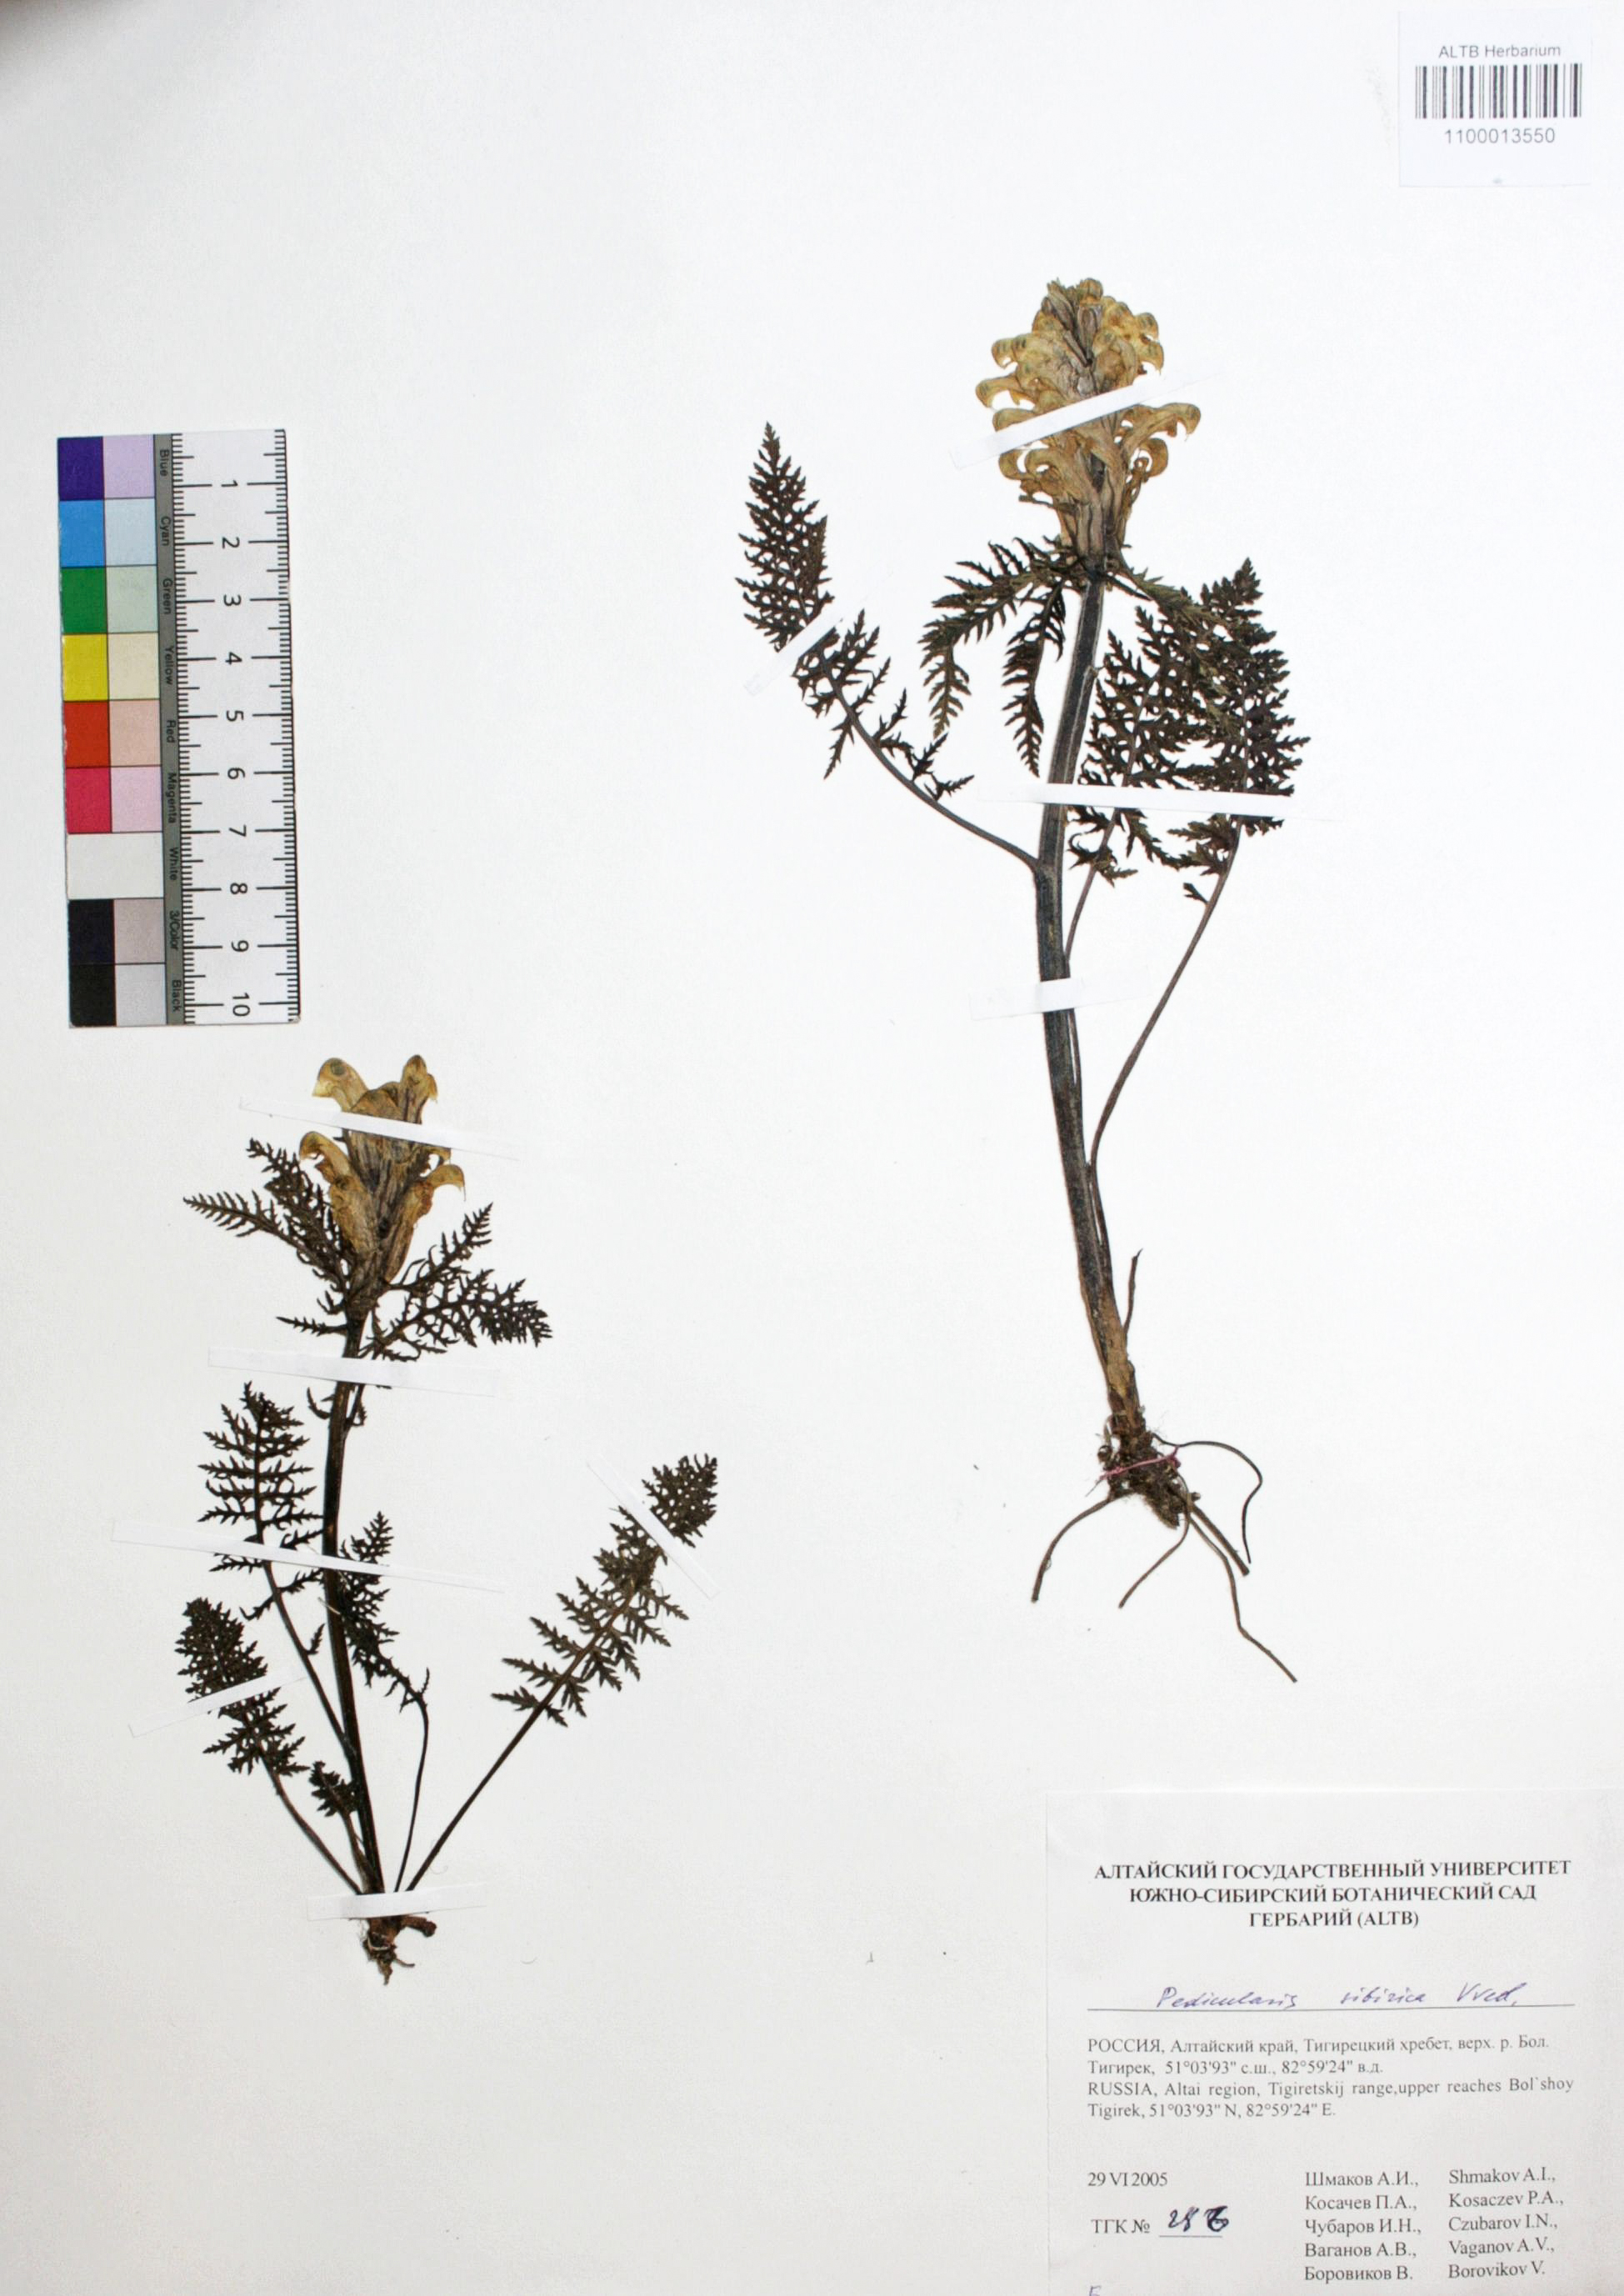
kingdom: Plantae
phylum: Tracheophyta
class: Magnoliopsida
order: Lamiales
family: Orobanchaceae
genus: Pedicularis
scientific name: Pedicularis sibirica
